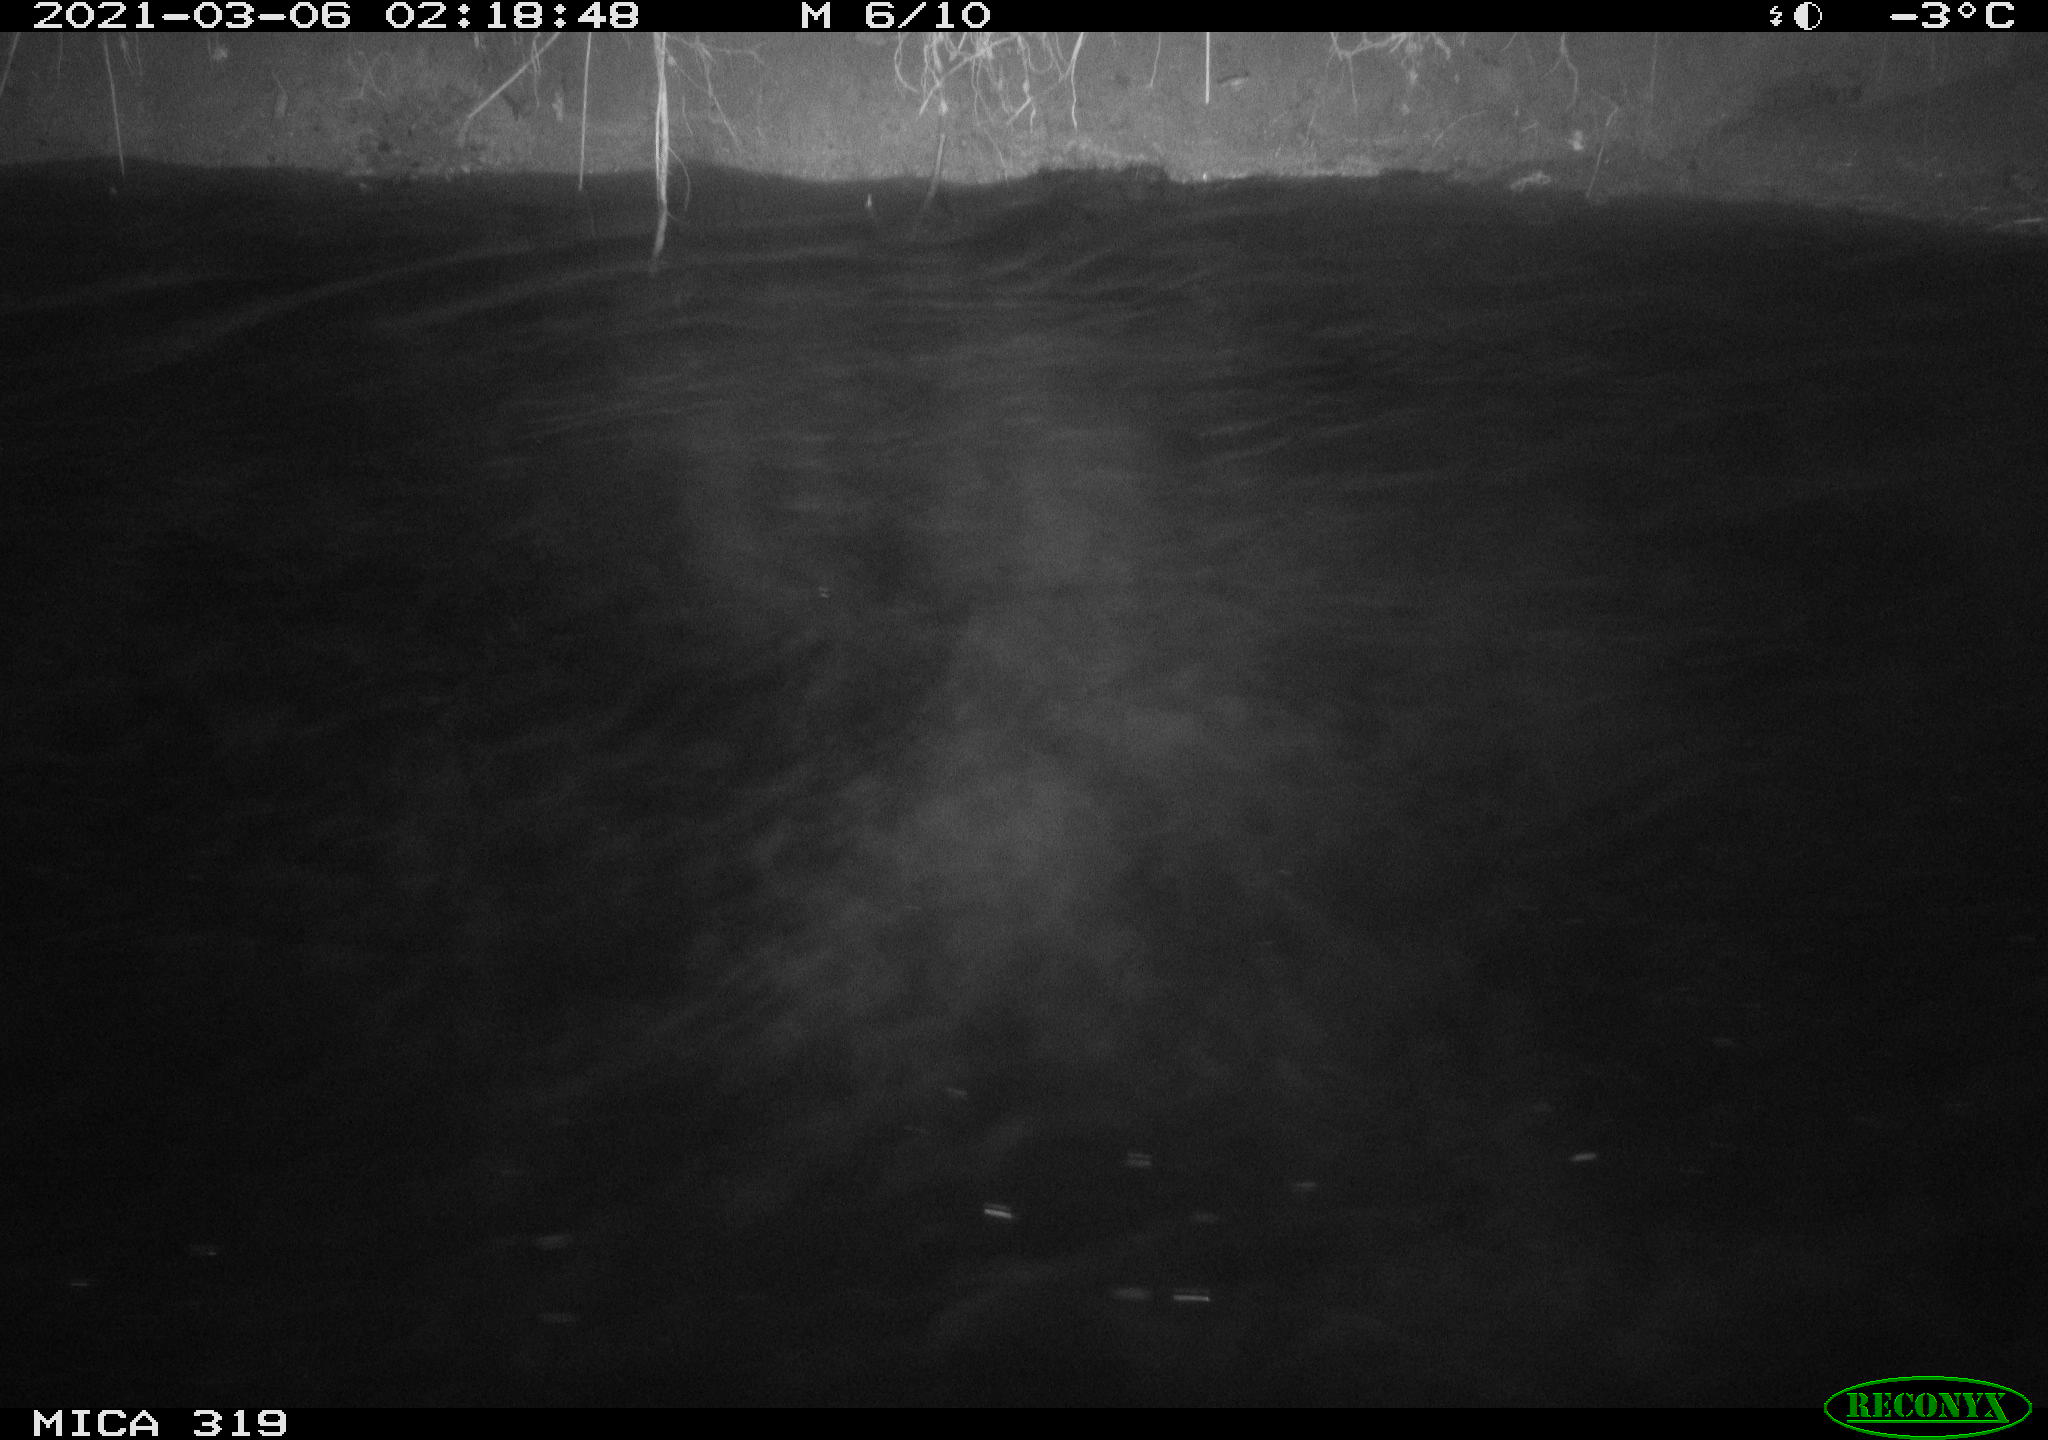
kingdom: Animalia
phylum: Chordata
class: Aves
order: Anseriformes
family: Anatidae
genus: Anas
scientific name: Anas platyrhynchos
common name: Mallard
